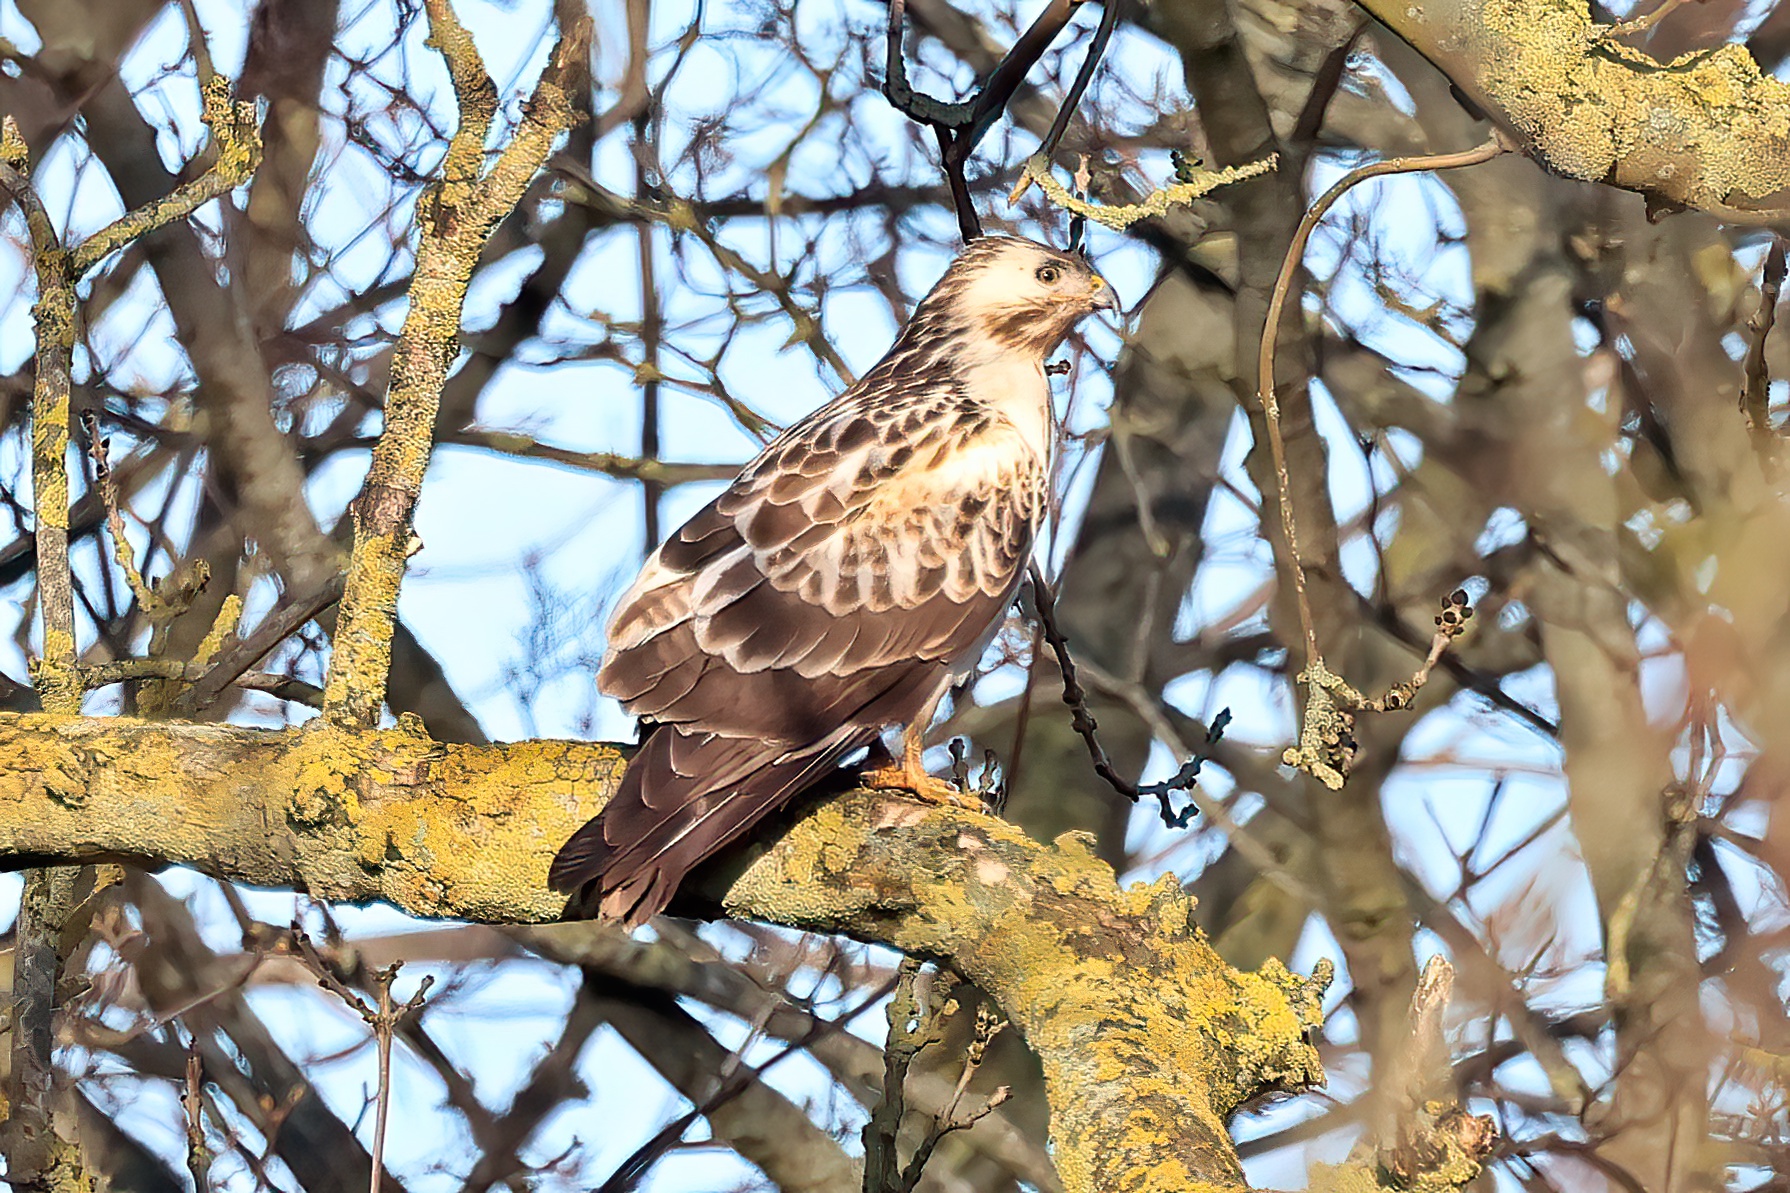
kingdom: Animalia
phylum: Chordata
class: Aves
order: Accipitriformes
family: Accipitridae
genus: Buteo
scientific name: Buteo buteo
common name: Musvåge
